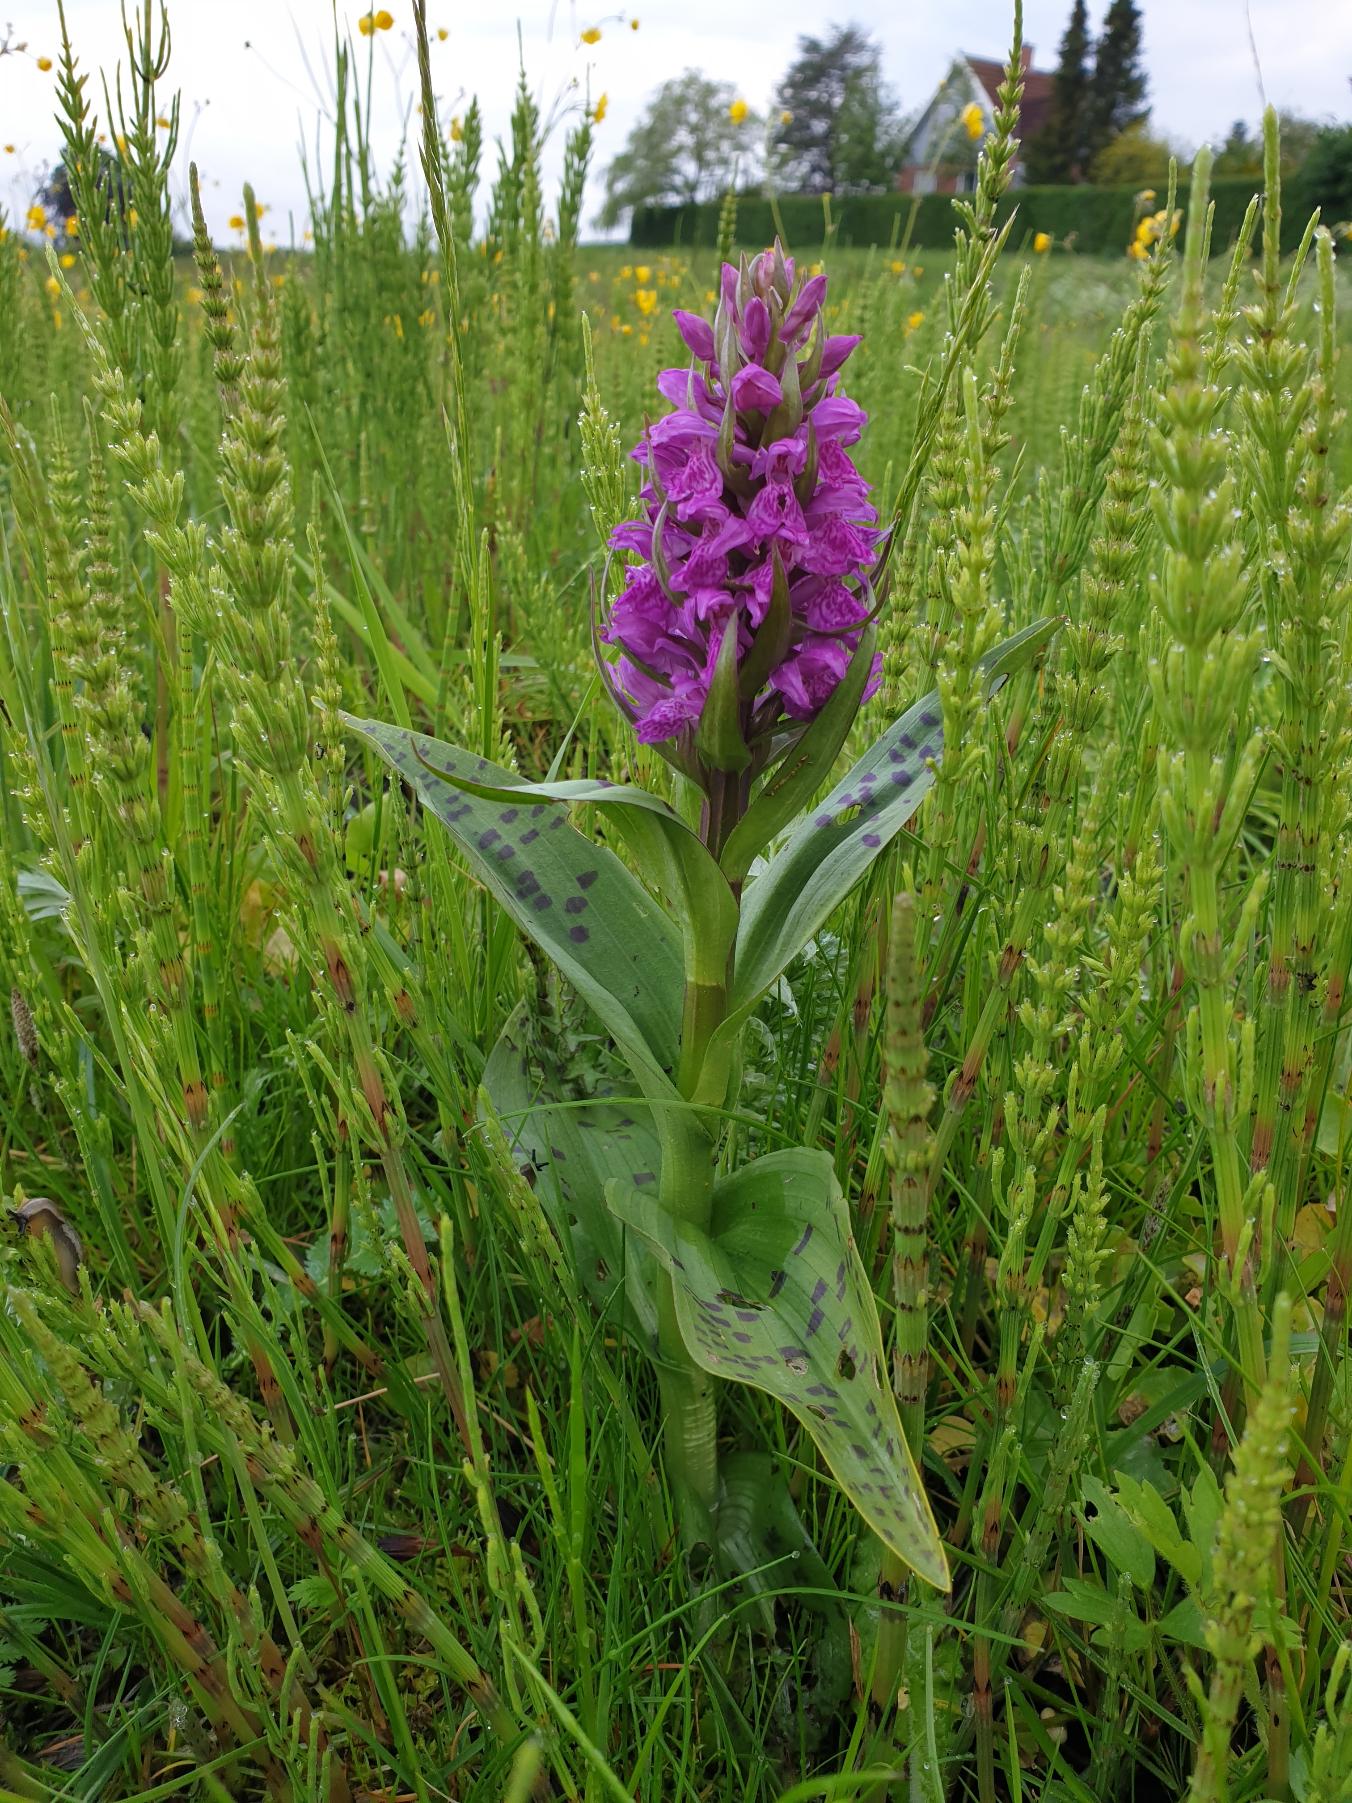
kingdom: Plantae
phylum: Tracheophyta
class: Liliopsida
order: Asparagales
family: Orchidaceae
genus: Dactylorhiza
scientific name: Dactylorhiza majalis
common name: Maj-gøgeurt
